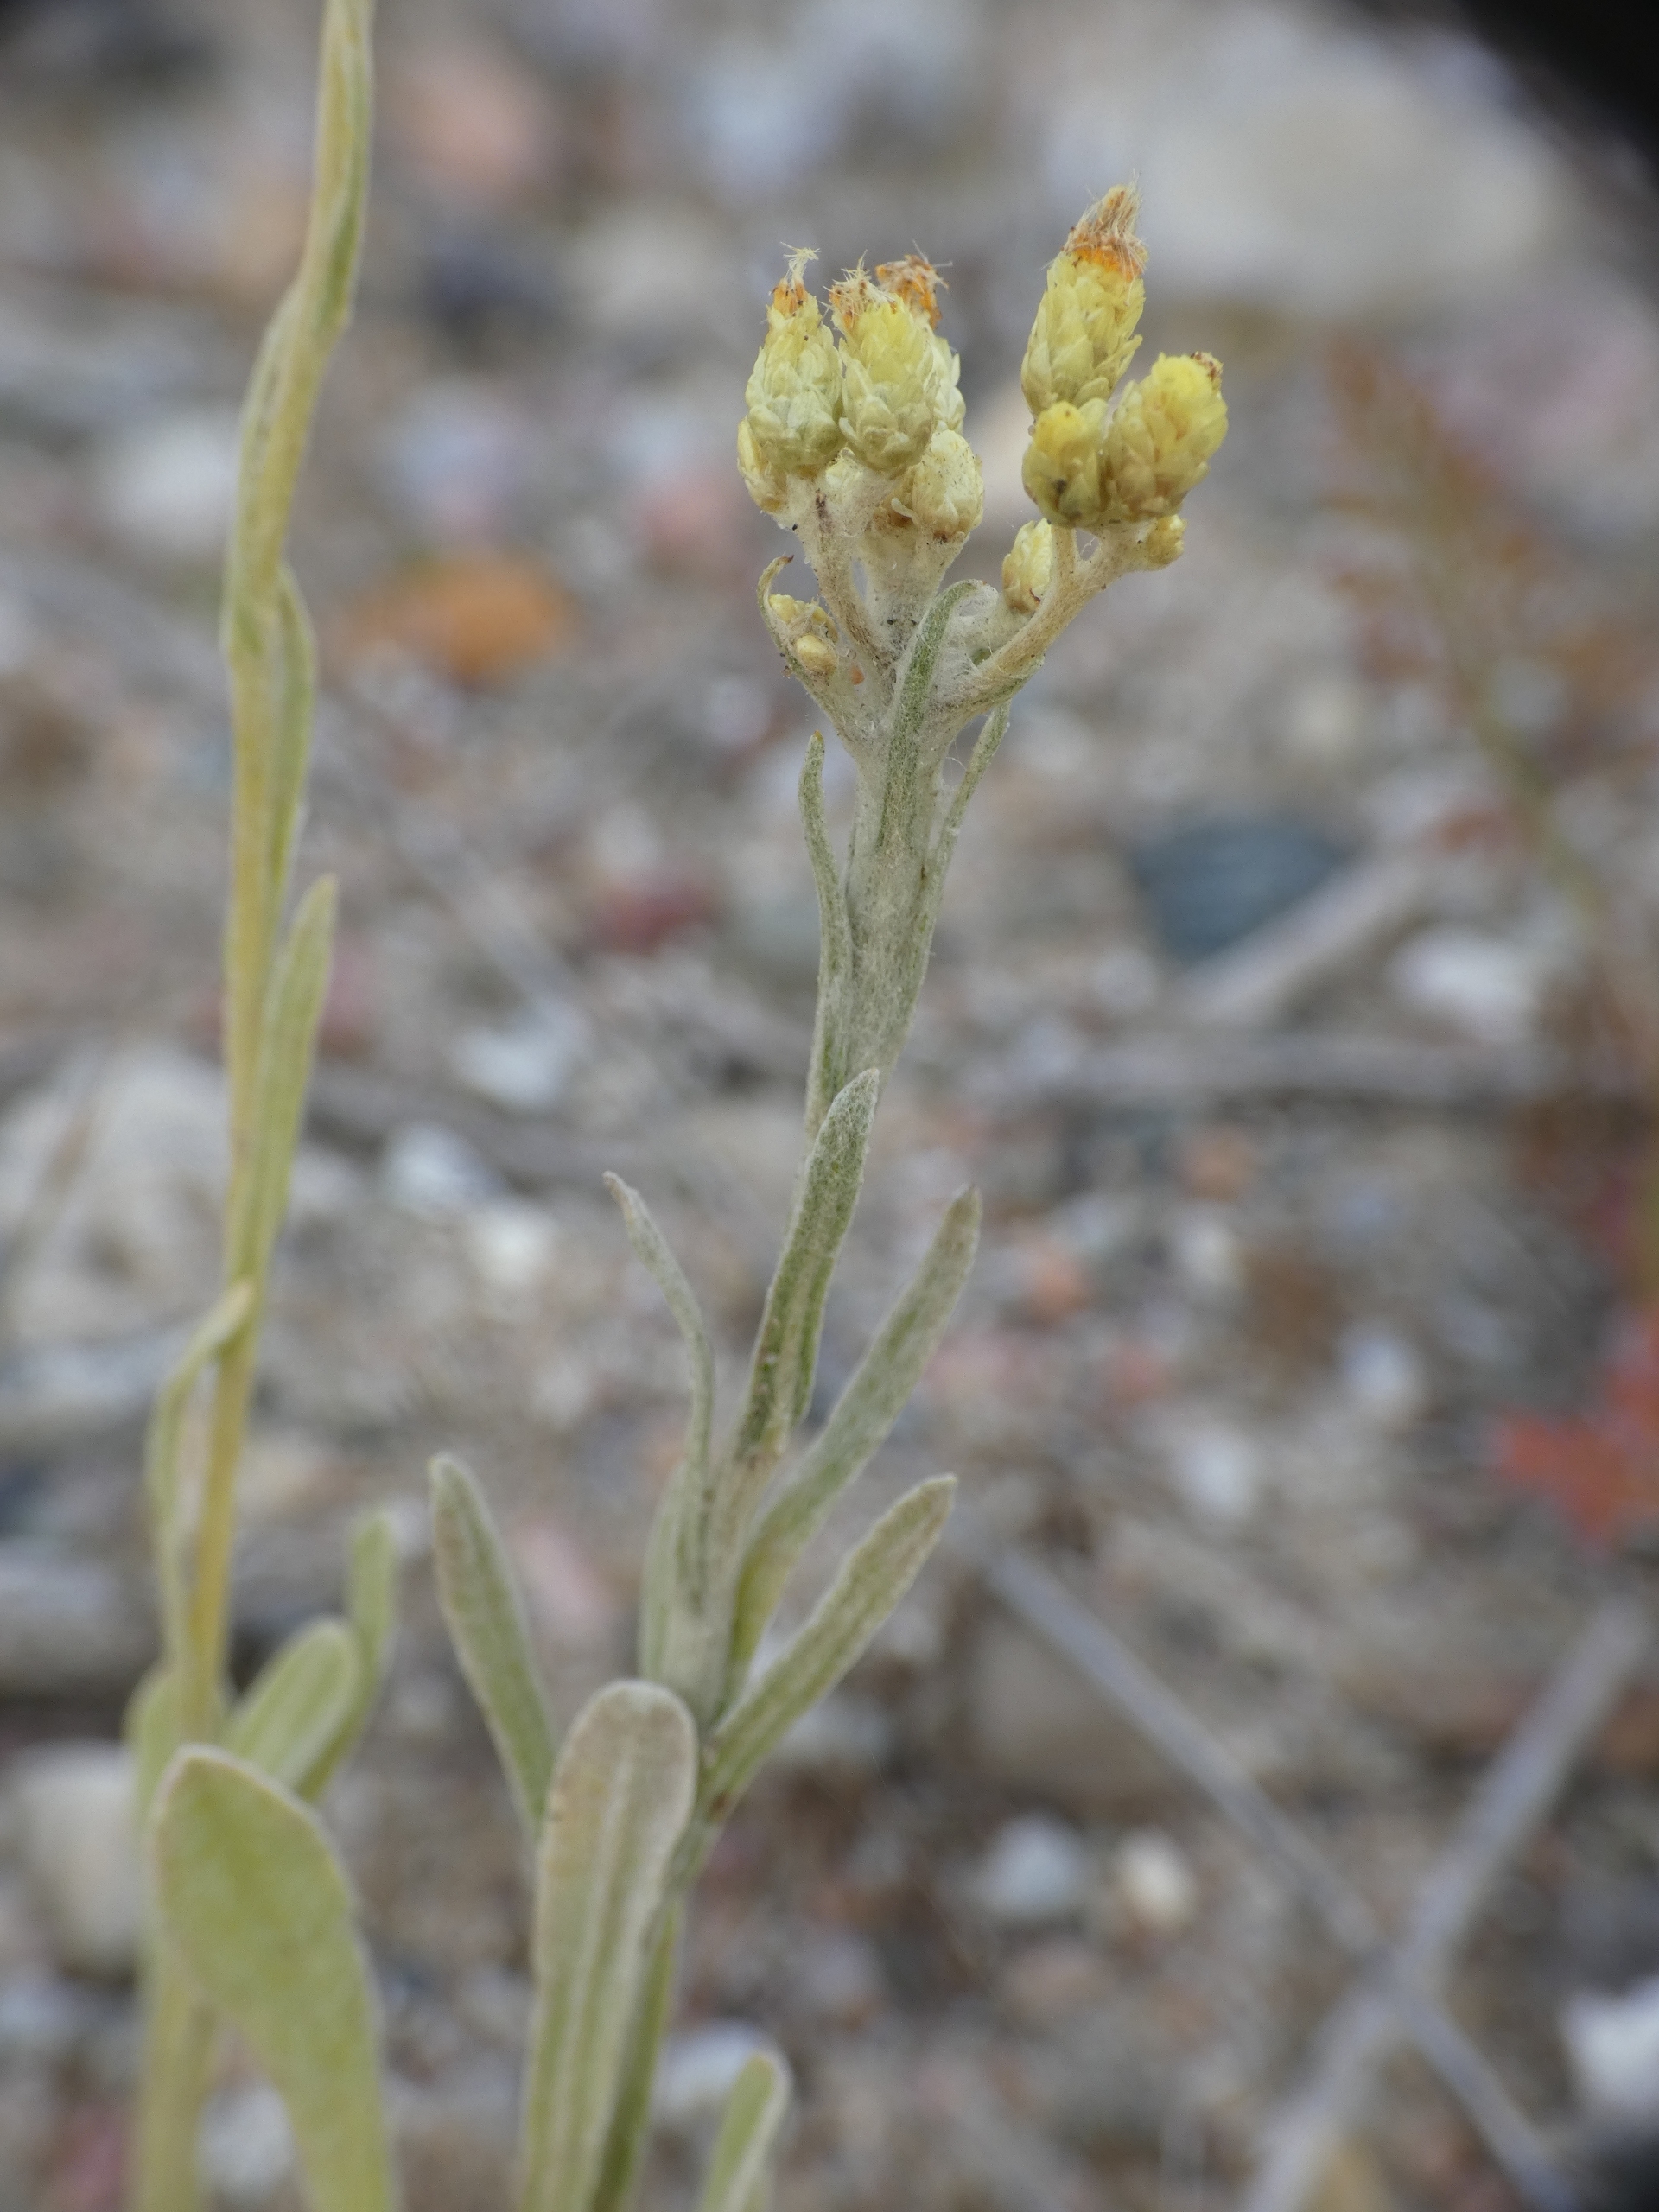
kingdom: Plantae
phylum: Tracheophyta
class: Magnoliopsida
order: Asterales
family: Asteraceae
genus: Helichrysum
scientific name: Helichrysum arenarium
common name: Gul evighedsblomst
